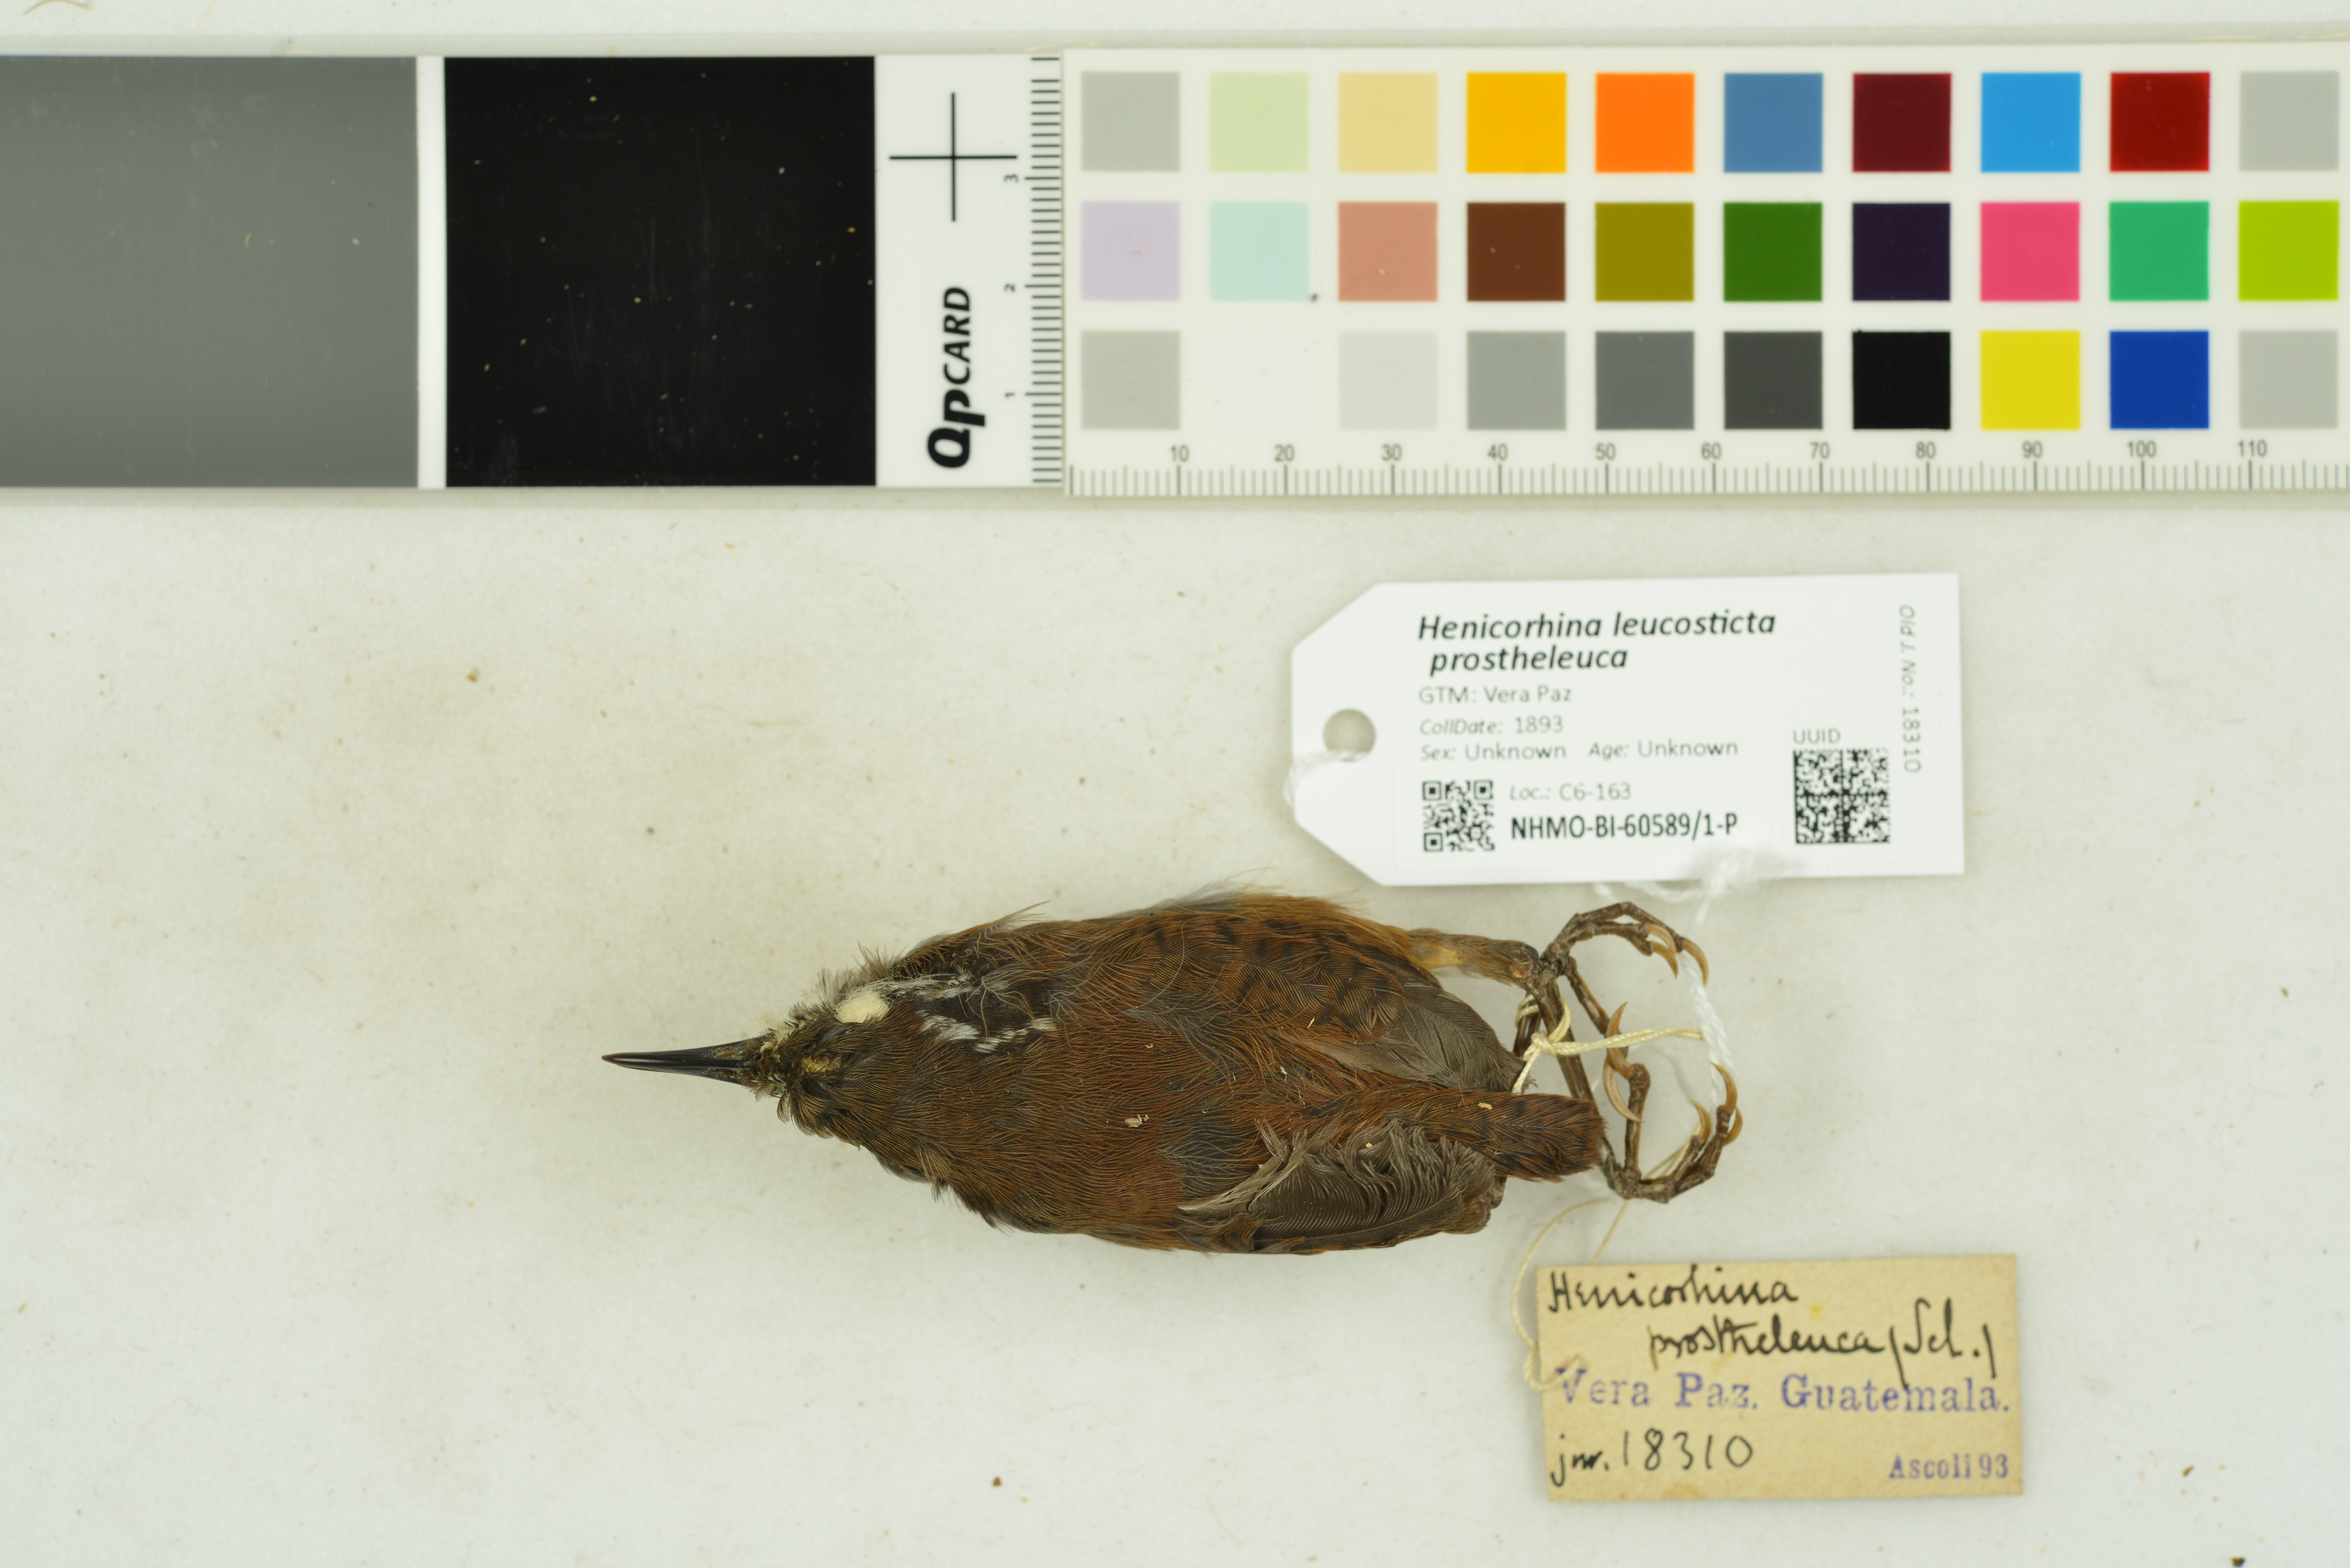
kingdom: Animalia
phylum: Chordata
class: Aves
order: Passeriformes
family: Troglodytidae
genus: Henicorhina
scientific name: Henicorhina leucosticta
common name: White-breasted wood-wren
